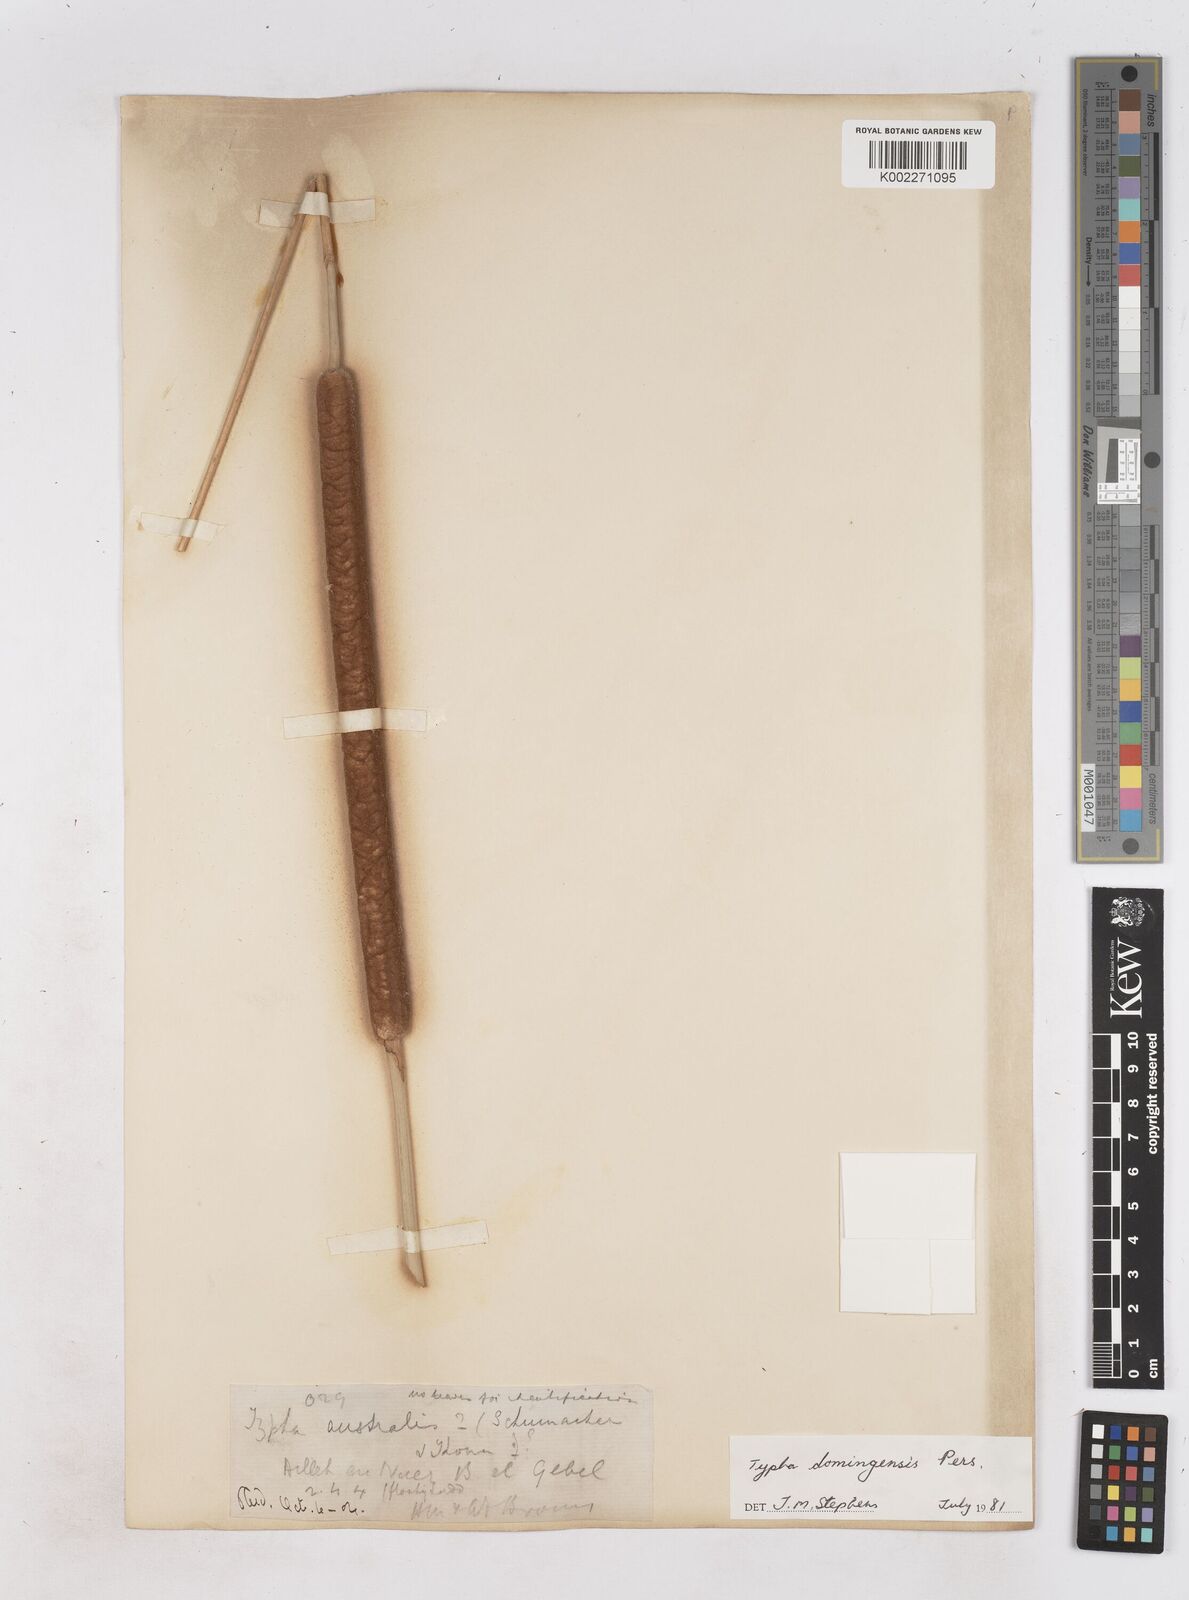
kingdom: Plantae
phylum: Tracheophyta
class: Liliopsida
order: Poales
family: Typhaceae
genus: Typha
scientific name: Typha domingensis
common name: Southern cattail
